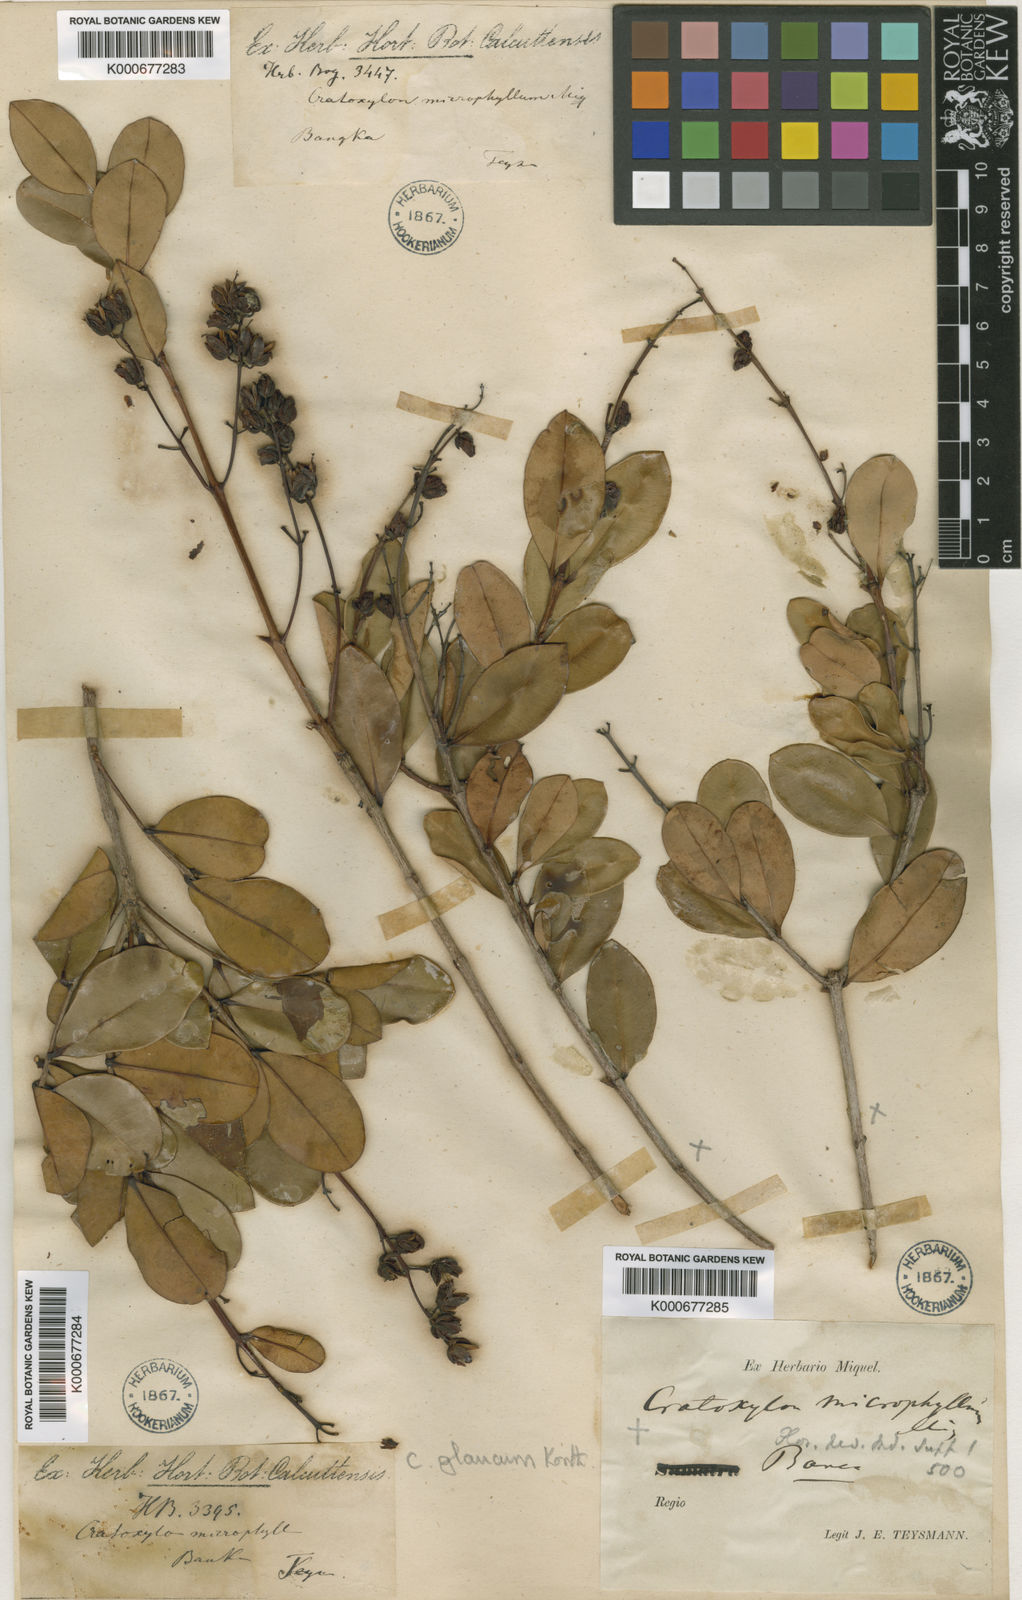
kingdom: Plantae
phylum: Tracheophyta
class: Magnoliopsida
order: Malpighiales
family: Hypericaceae
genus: Cratoxylum
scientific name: Cratoxylum glaucum
